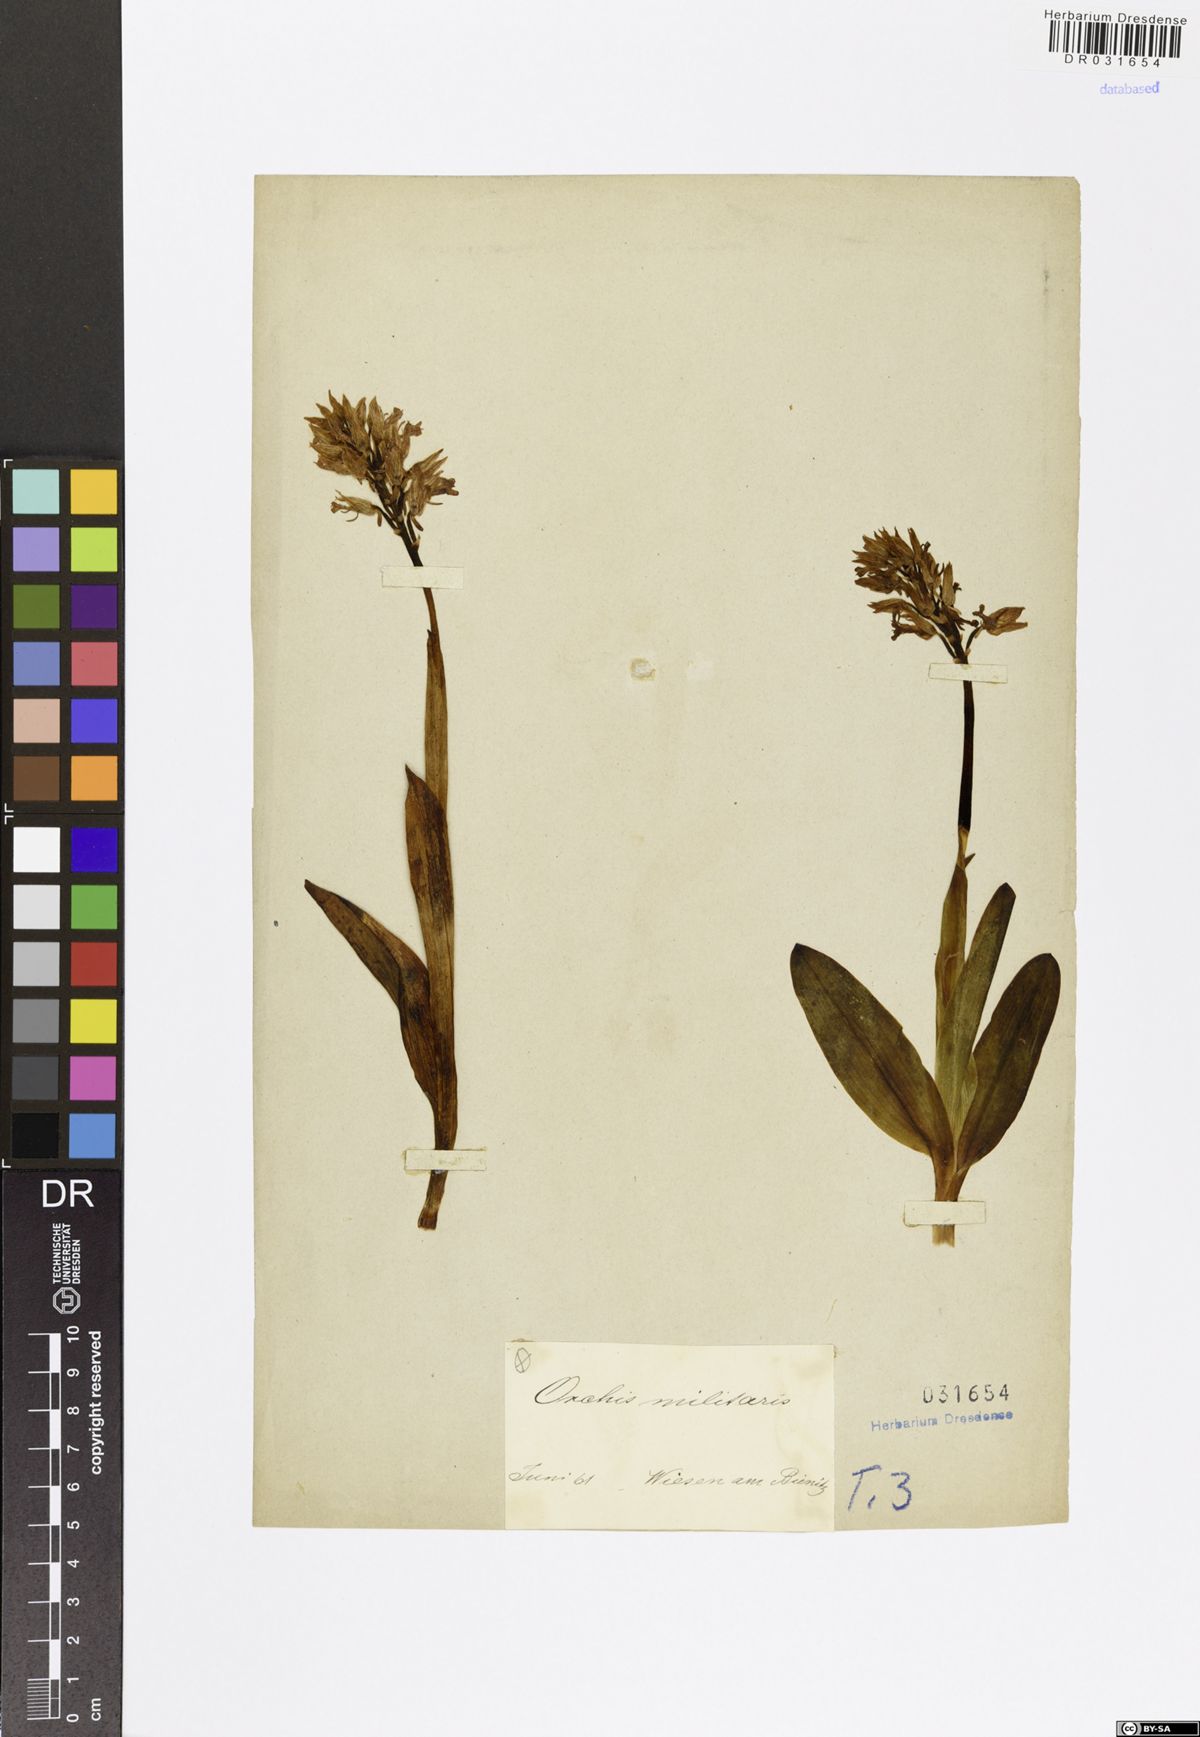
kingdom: Plantae
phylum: Tracheophyta
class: Liliopsida
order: Asparagales
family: Orchidaceae
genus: Orchis
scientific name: Orchis militaris
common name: Military orchid
